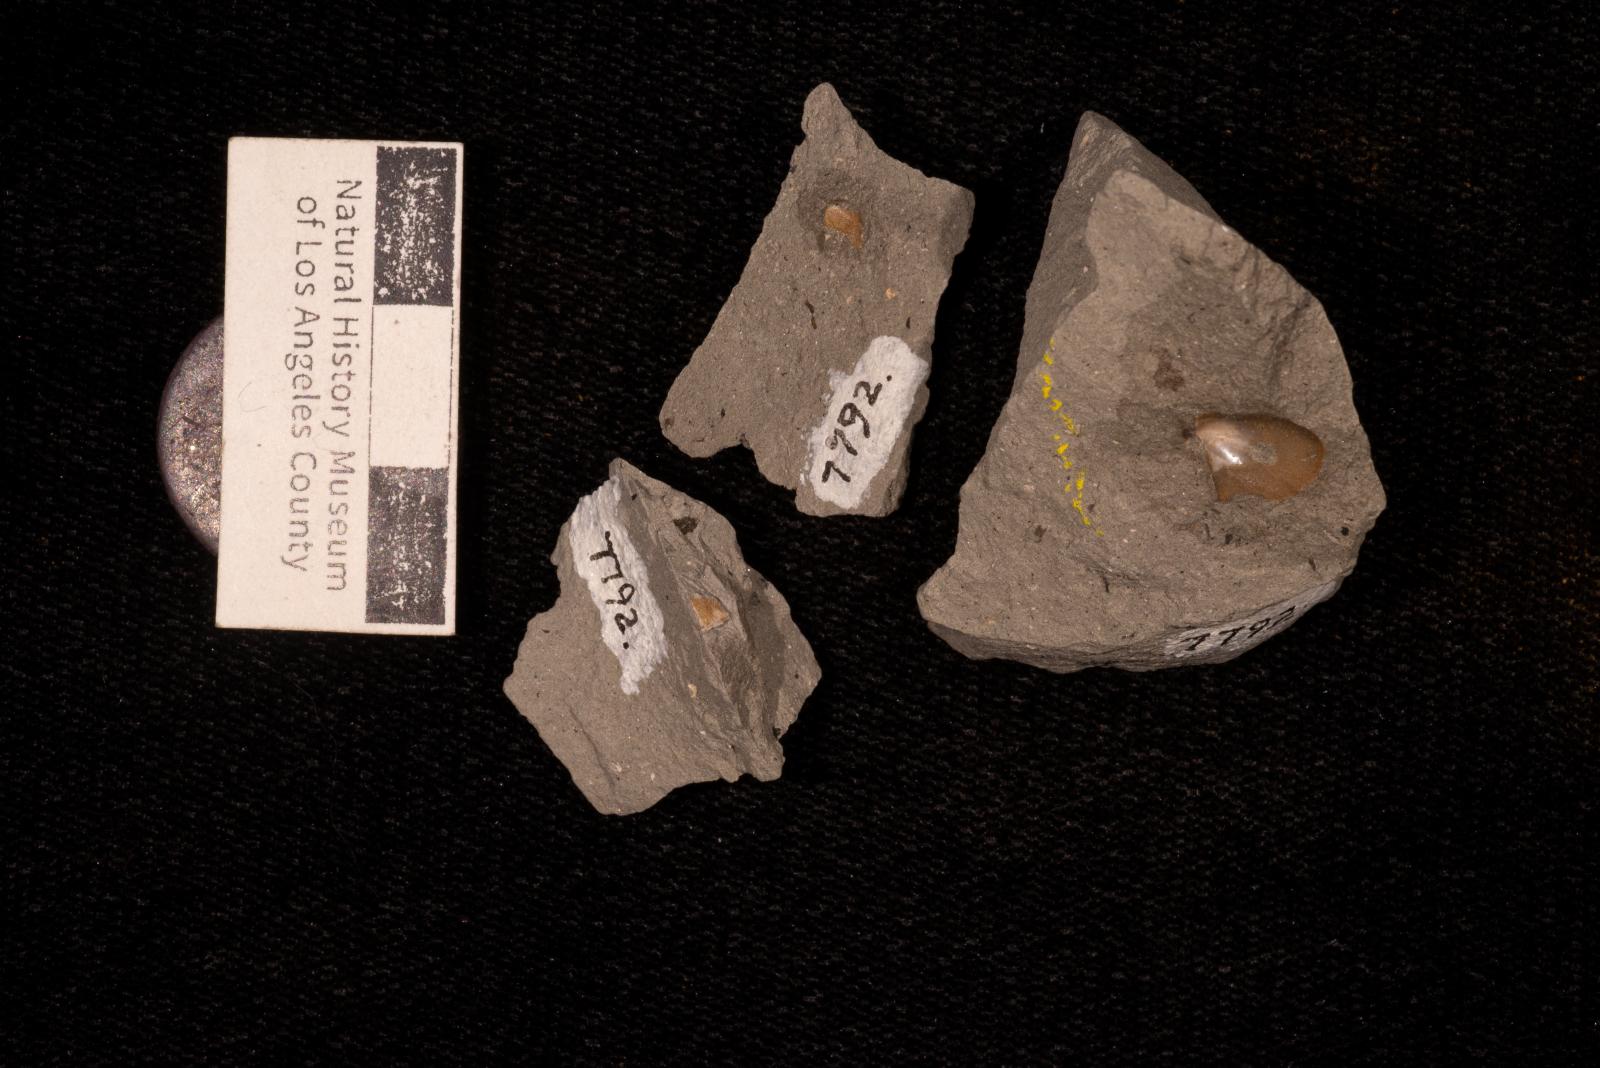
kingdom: Animalia
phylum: Mollusca
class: Bivalvia
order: Ostreida
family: Pteriidae
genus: Pteria
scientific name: Pteria
